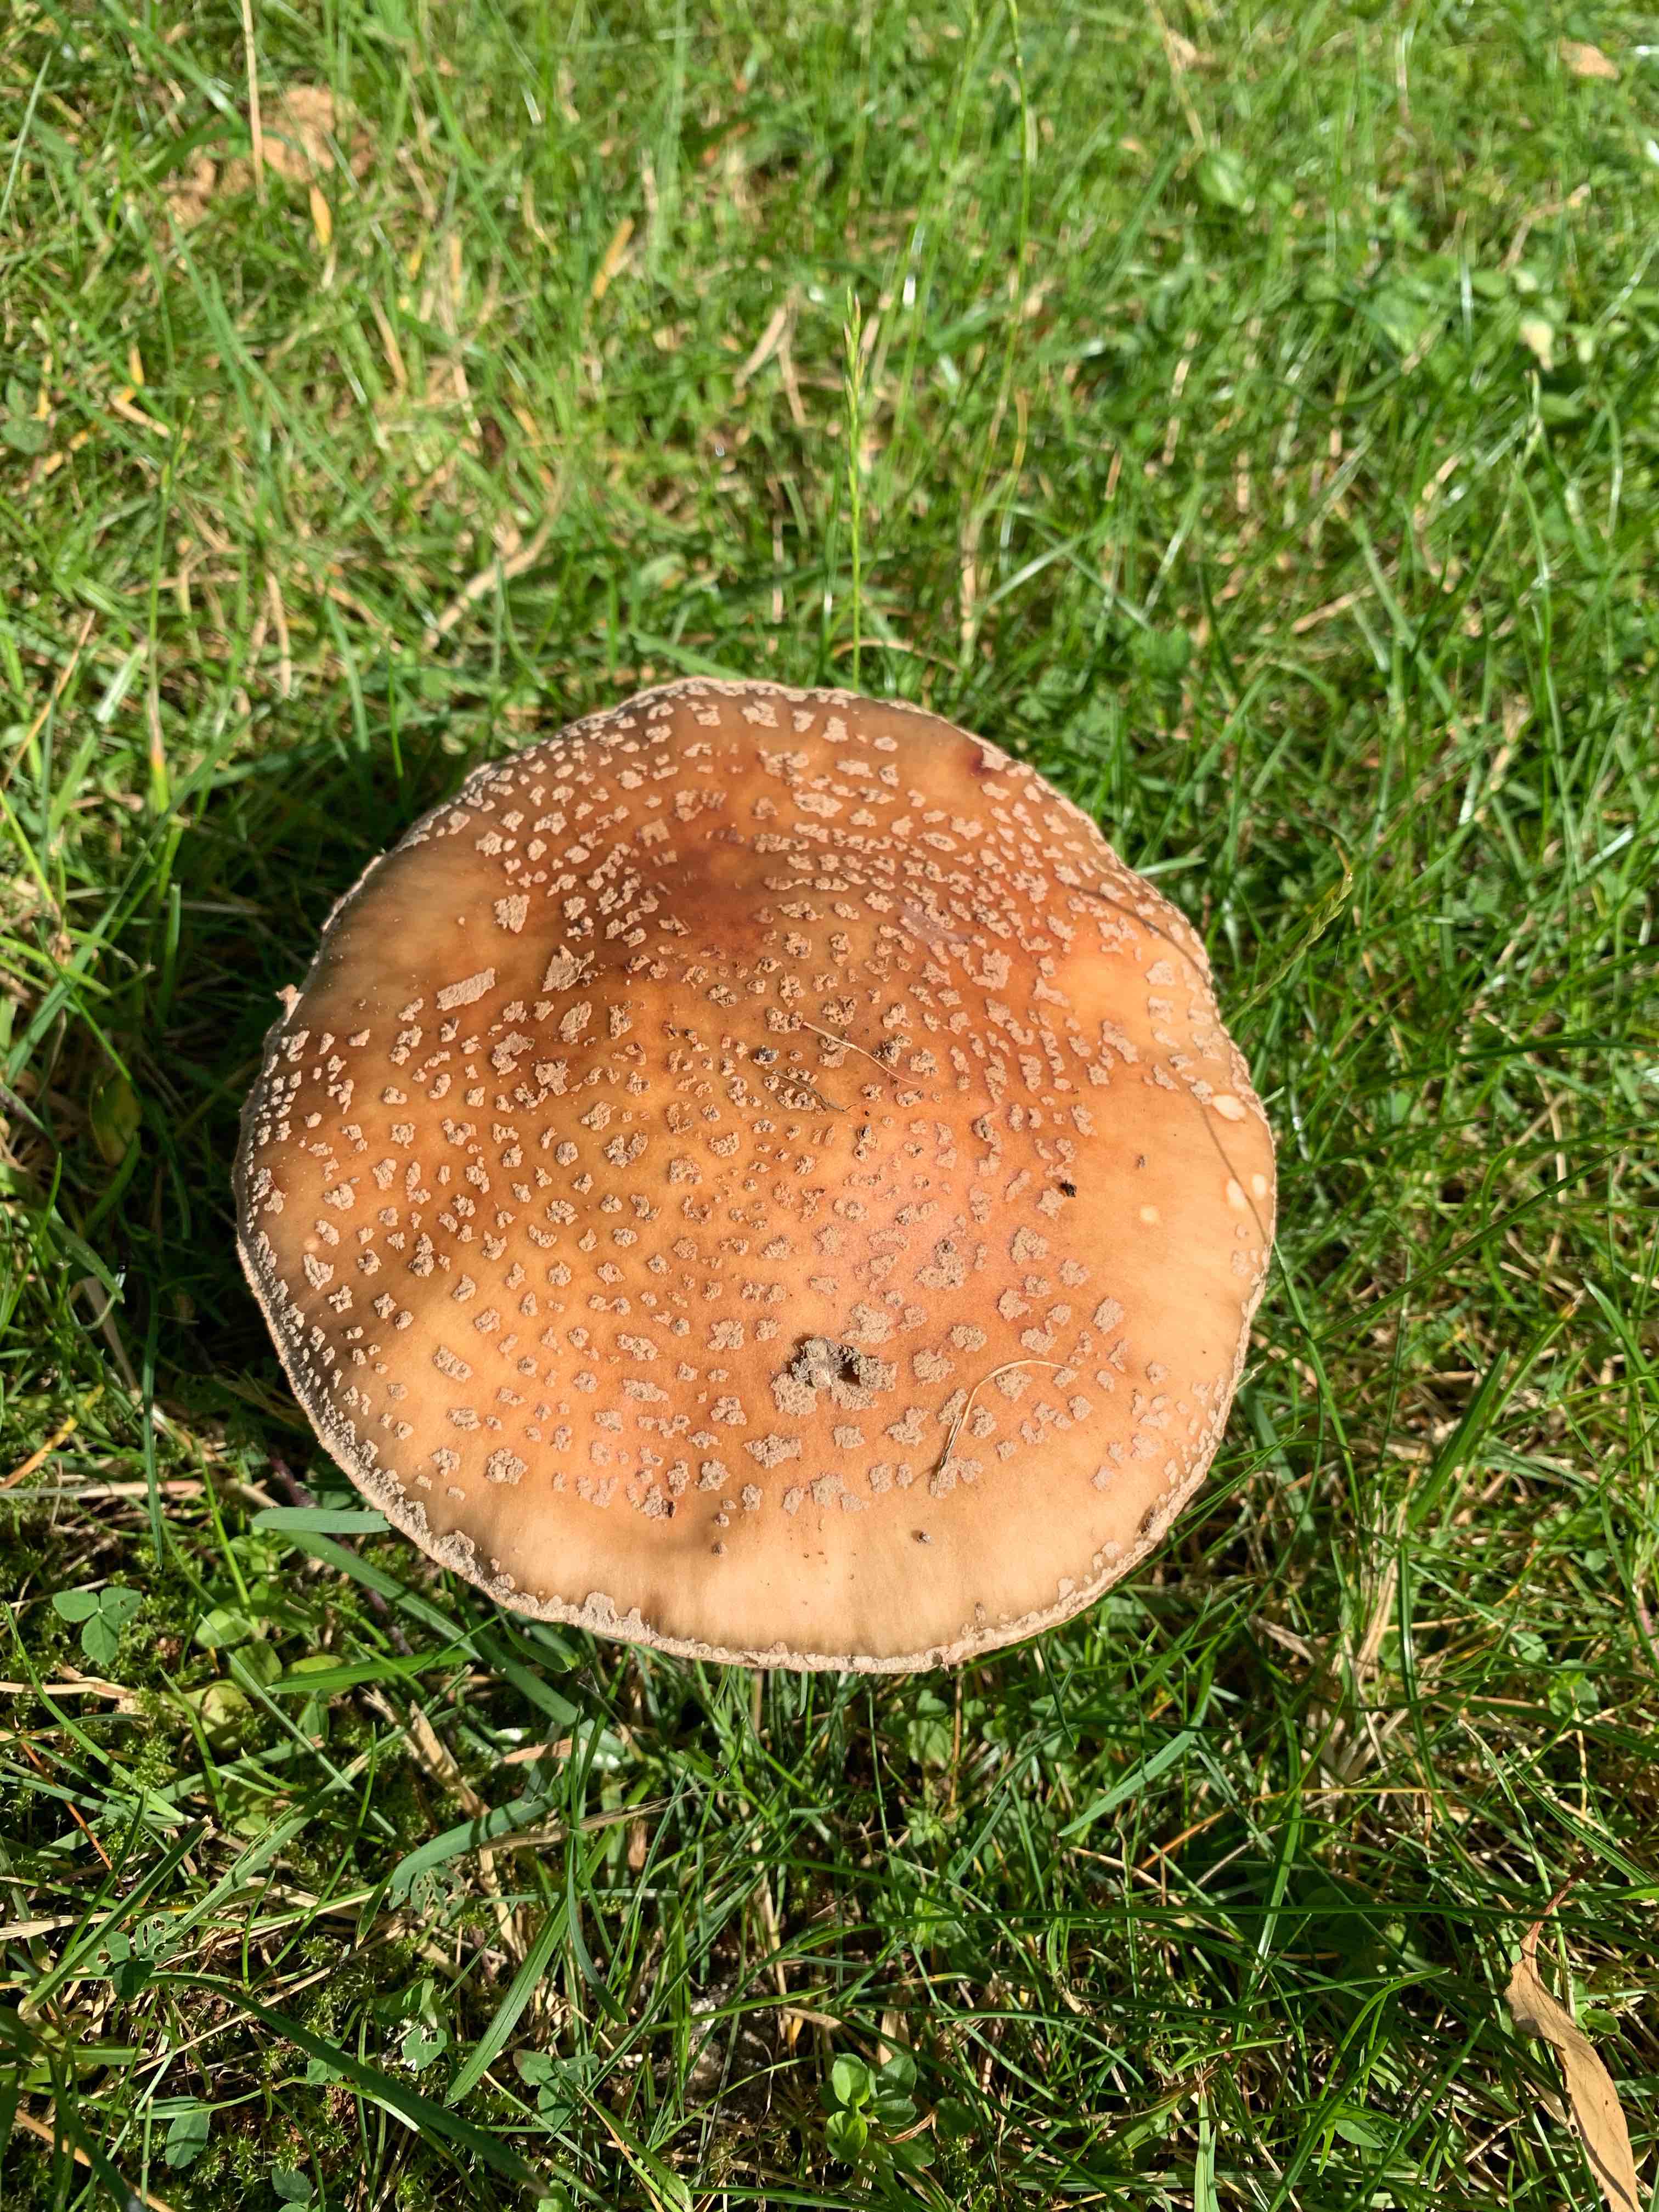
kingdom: Fungi
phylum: Basidiomycota
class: Agaricomycetes
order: Agaricales
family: Amanitaceae
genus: Amanita
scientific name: Amanita rubescens
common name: rødmende fluesvamp
